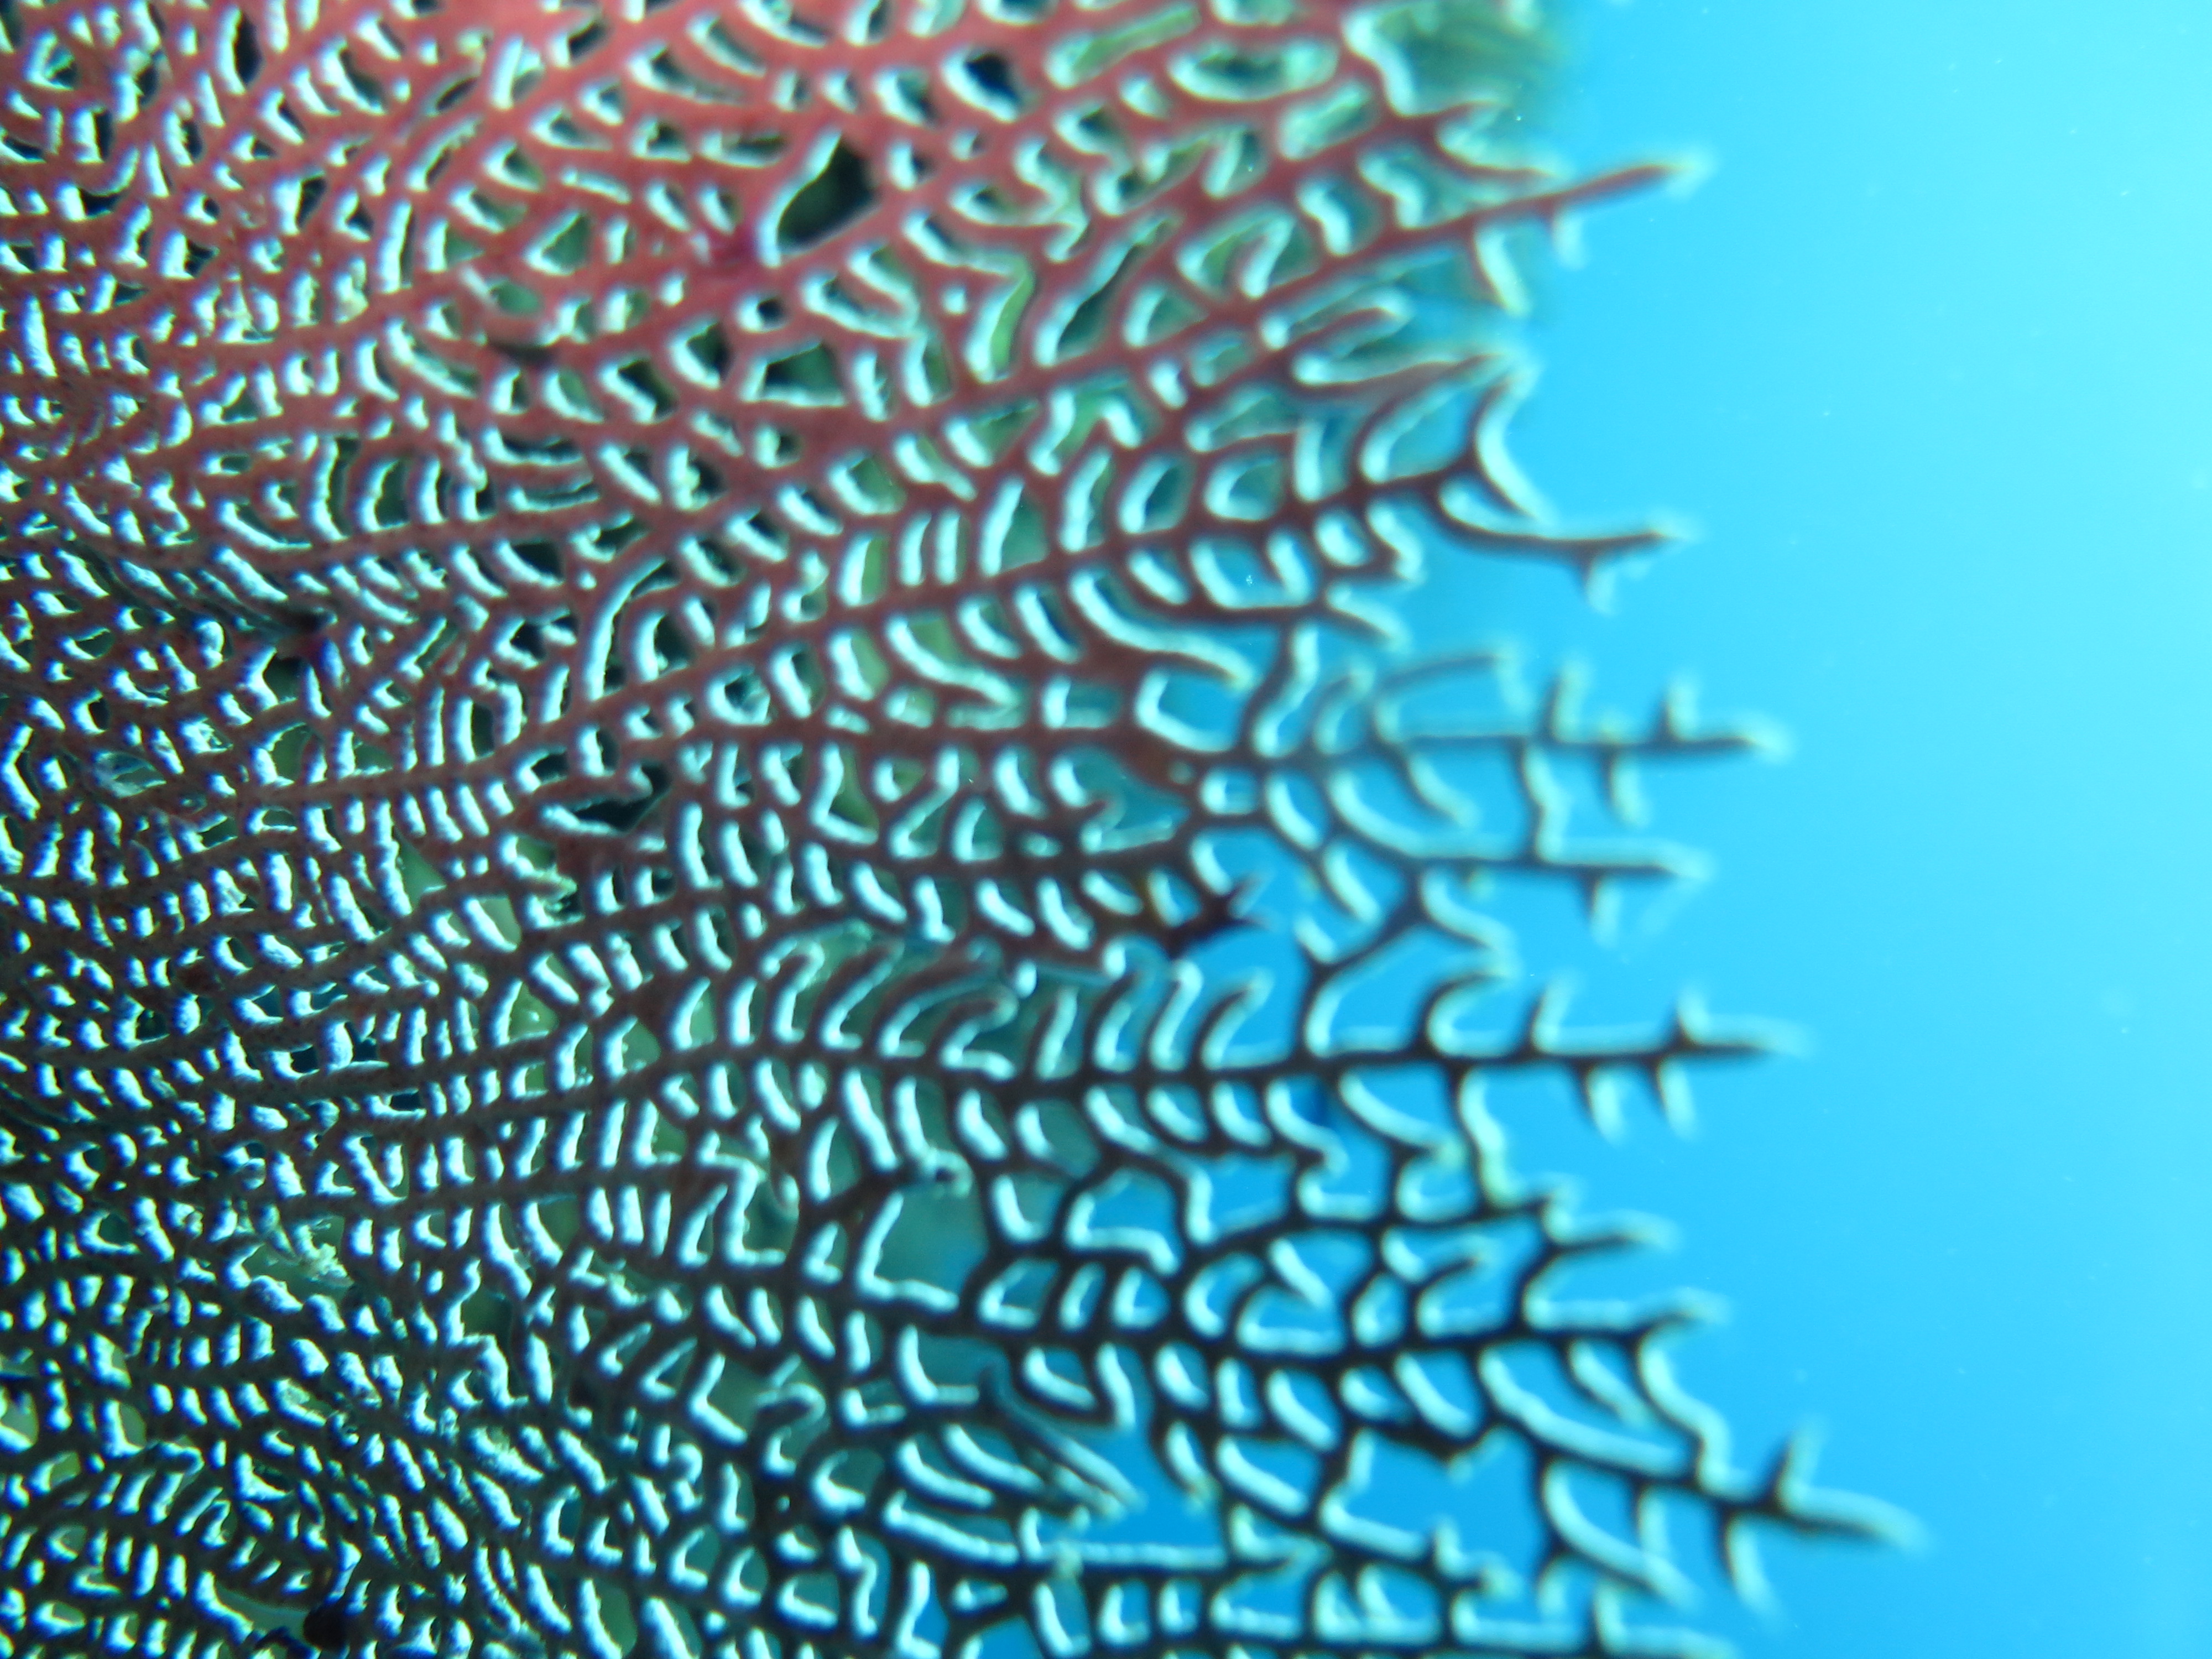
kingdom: Animalia
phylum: Cnidaria
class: Anthozoa
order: Malacalcyonacea
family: Gorgoniidae
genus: Gorgonia
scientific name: Gorgonia ventalina
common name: Common sea fan
